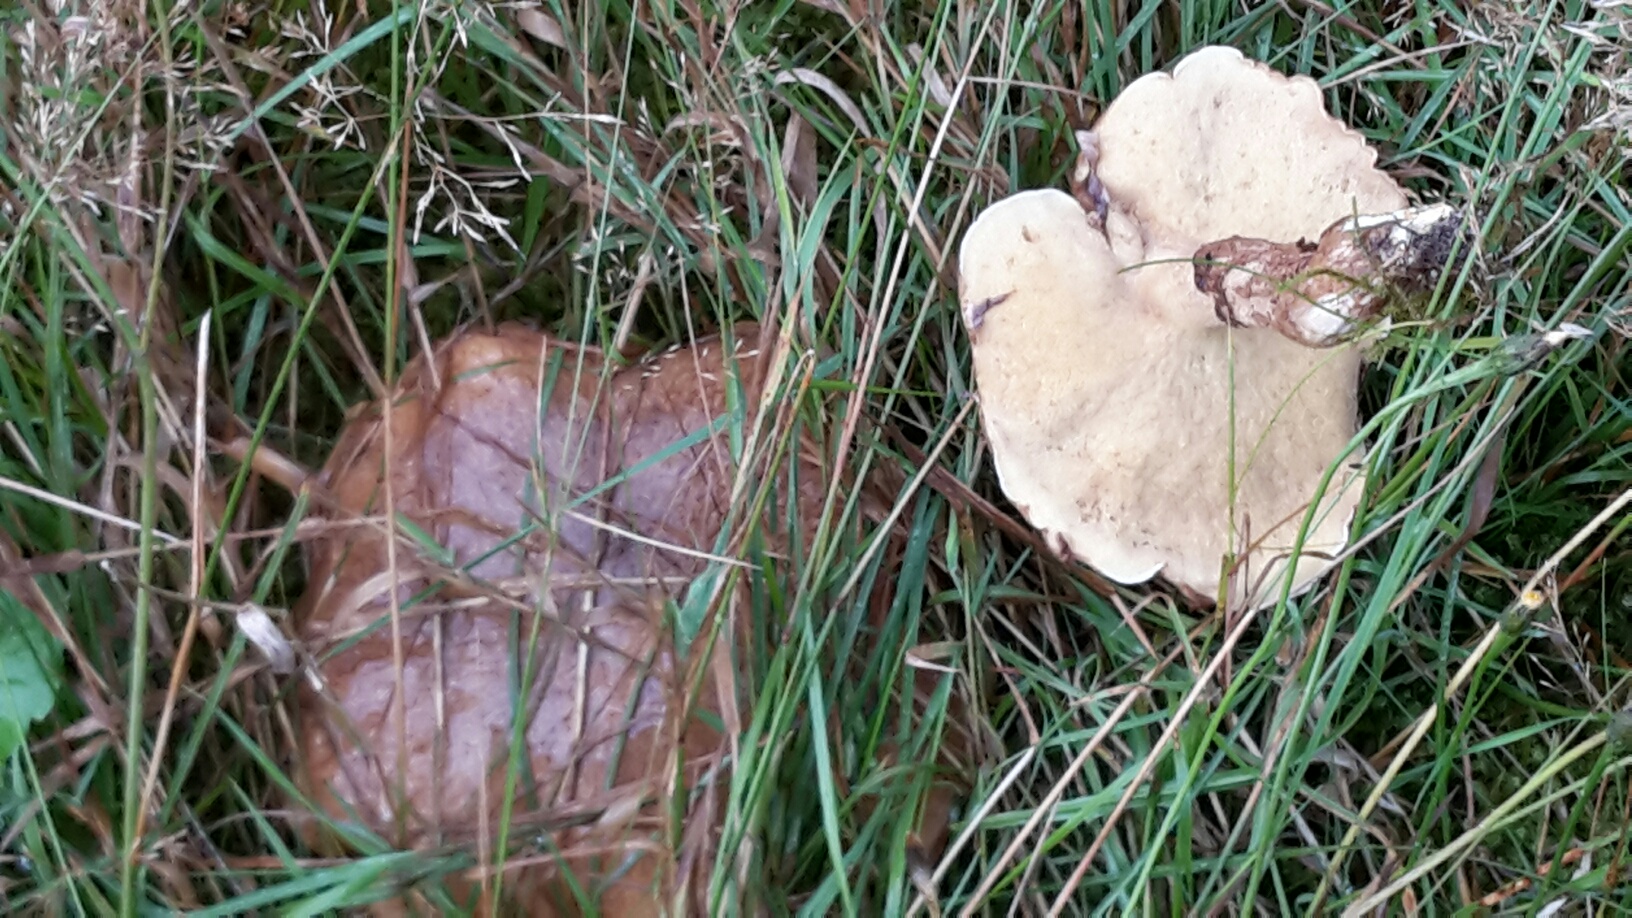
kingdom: Fungi
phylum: Basidiomycota
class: Agaricomycetes
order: Boletales
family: Suillaceae
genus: Suillus
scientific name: Suillus luteus
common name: brungul slimrørhat
